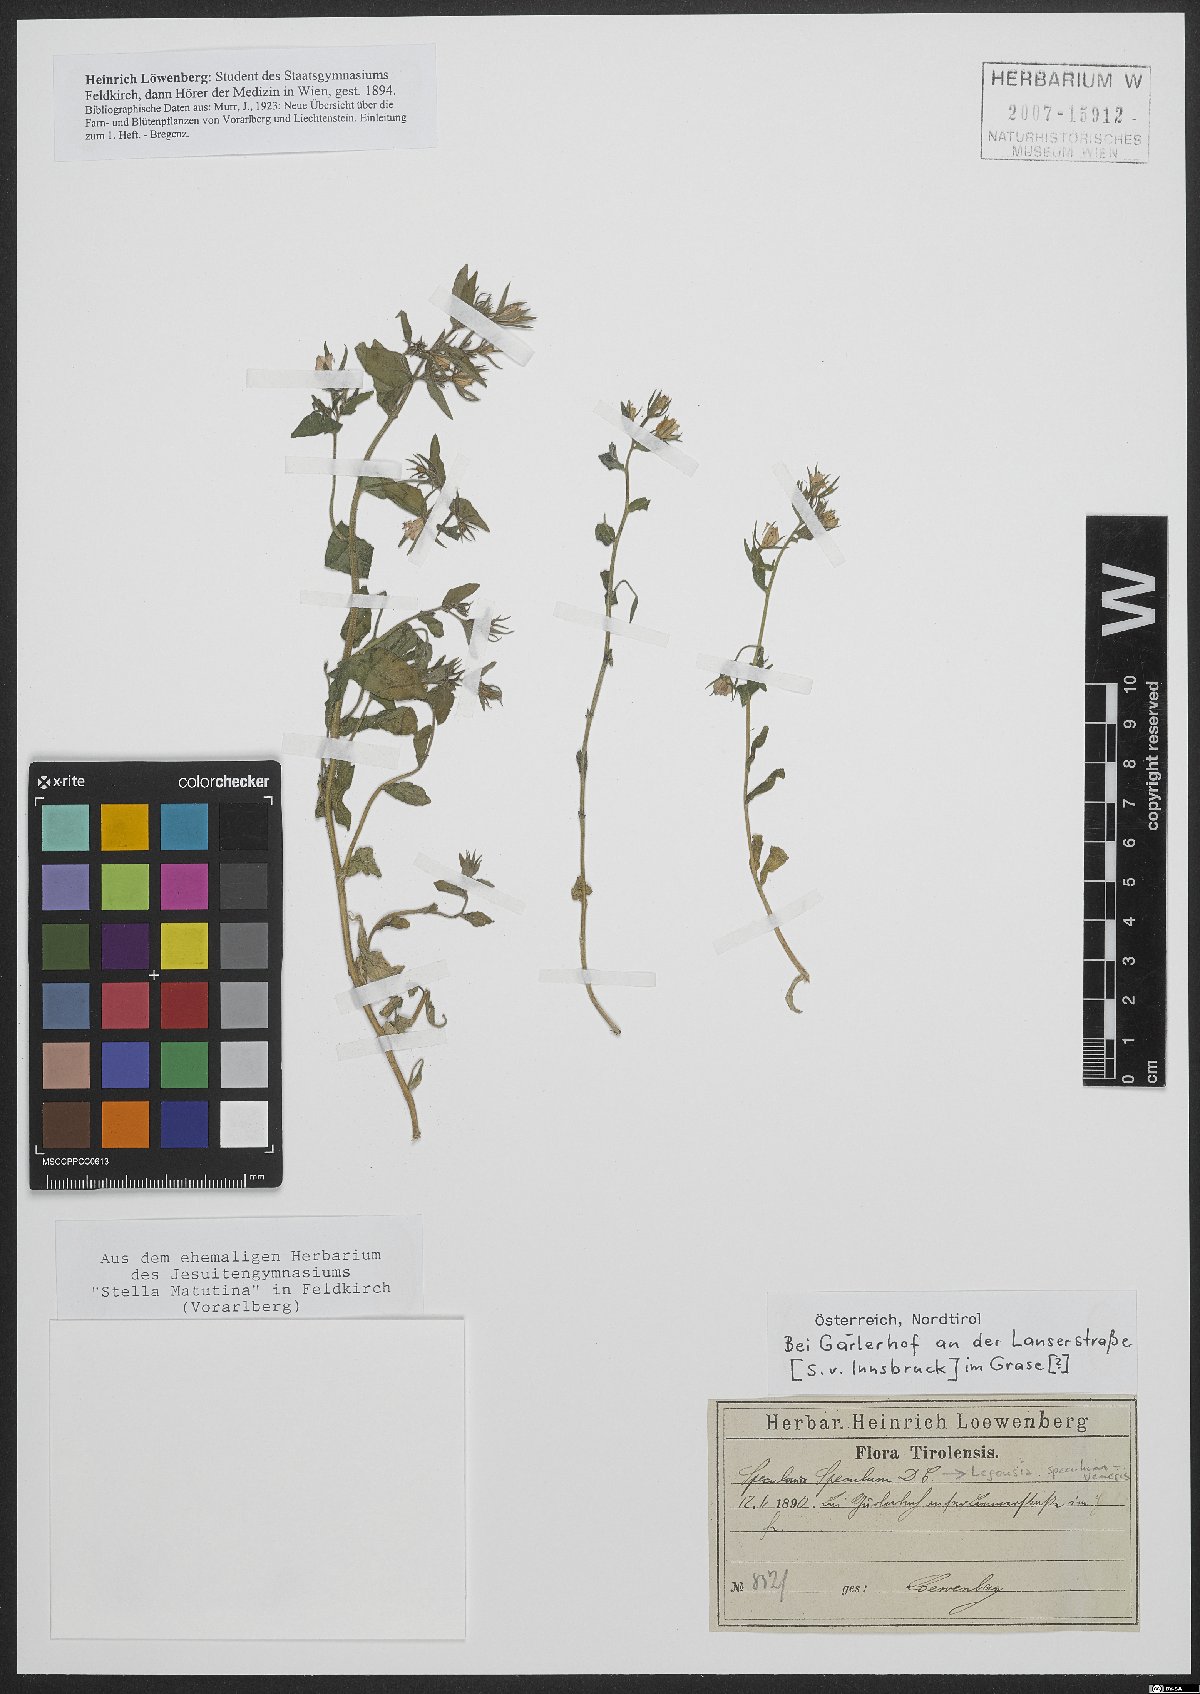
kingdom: Plantae
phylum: Tracheophyta
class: Magnoliopsida
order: Asterales
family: Campanulaceae
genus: Legousia
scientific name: Legousia speculum-veneris
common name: Large venus's-looking-glass
